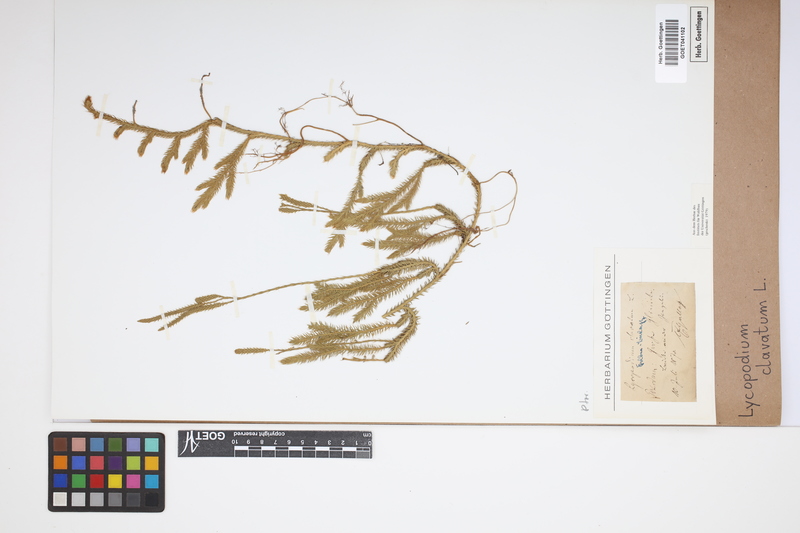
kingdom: Plantae
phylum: Tracheophyta
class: Lycopodiopsida
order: Lycopodiales
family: Lycopodiaceae
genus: Lycopodium
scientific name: Lycopodium clavatum
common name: Stag's-horn clubmoss
